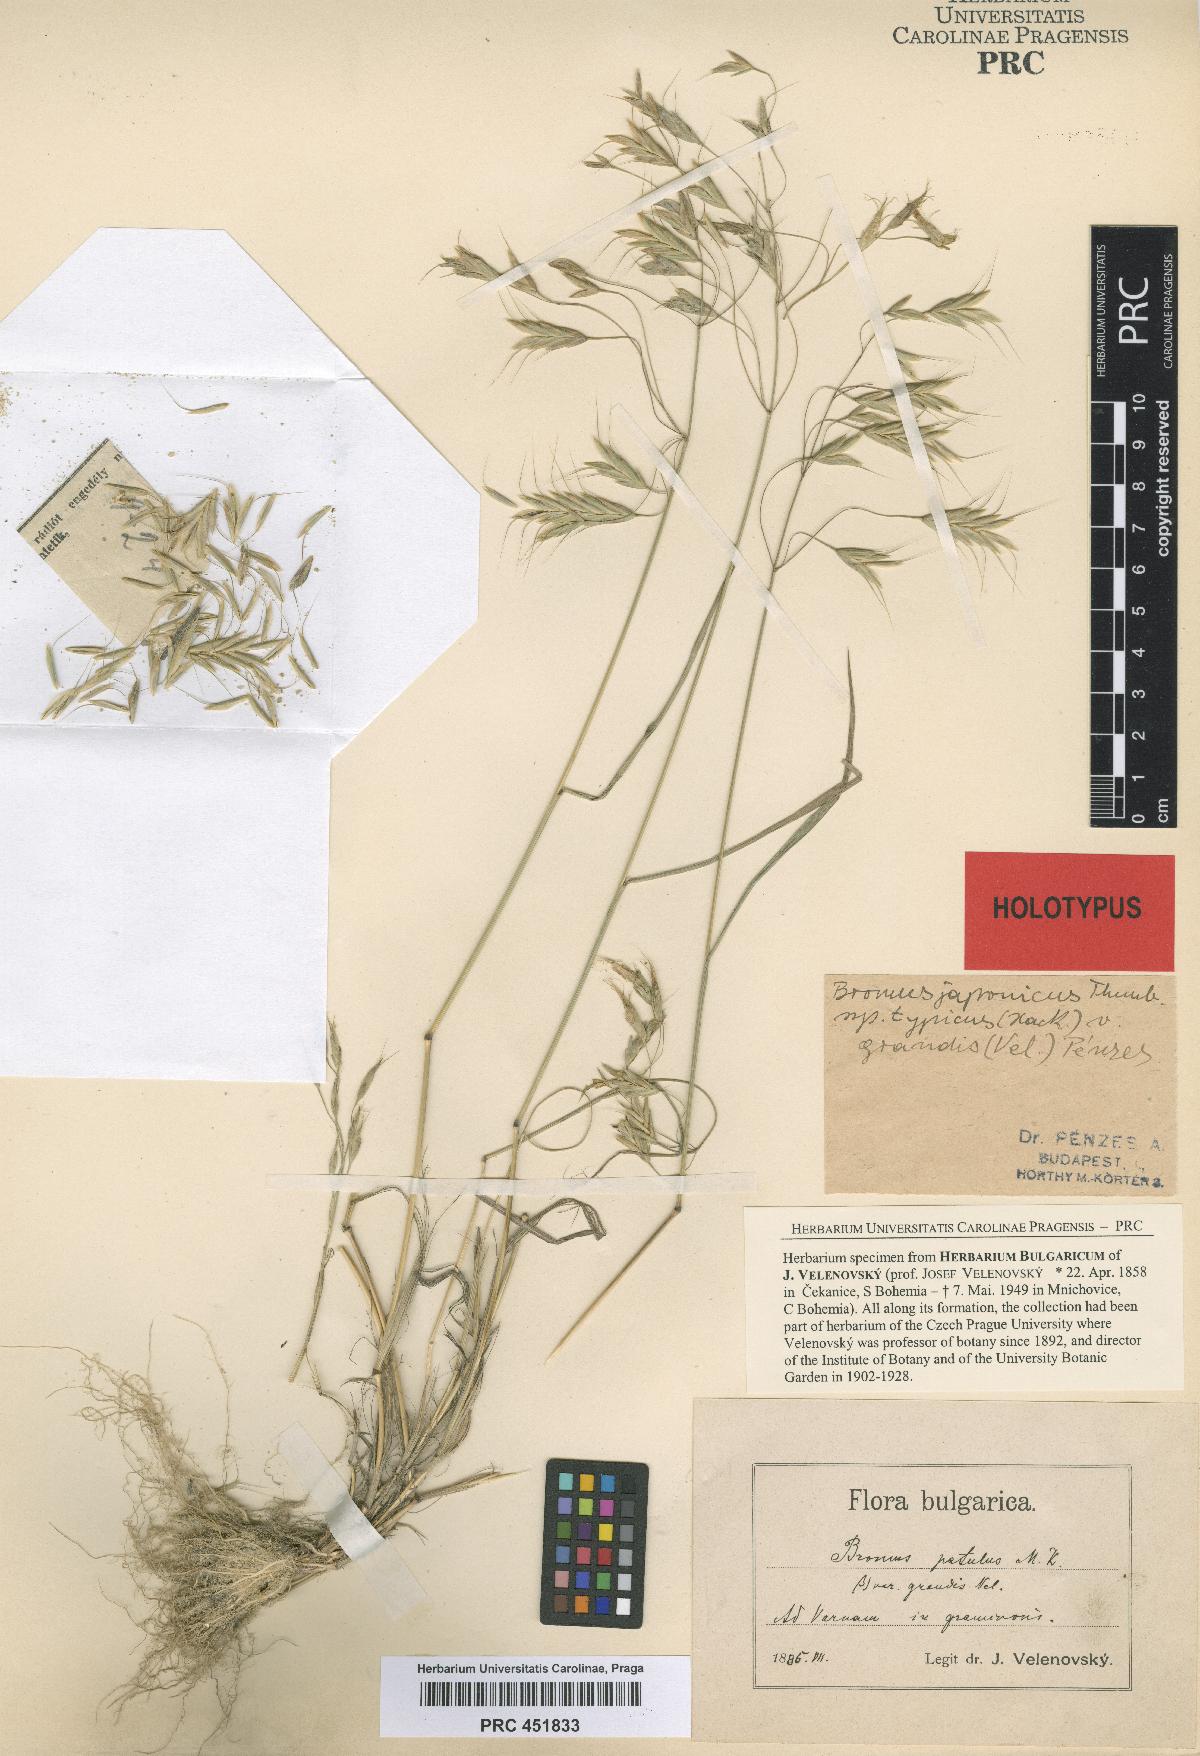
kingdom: Plantae
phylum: Tracheophyta
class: Liliopsida
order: Poales
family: Poaceae
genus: Bromus
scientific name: Bromus japonicus
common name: Japanese brome
